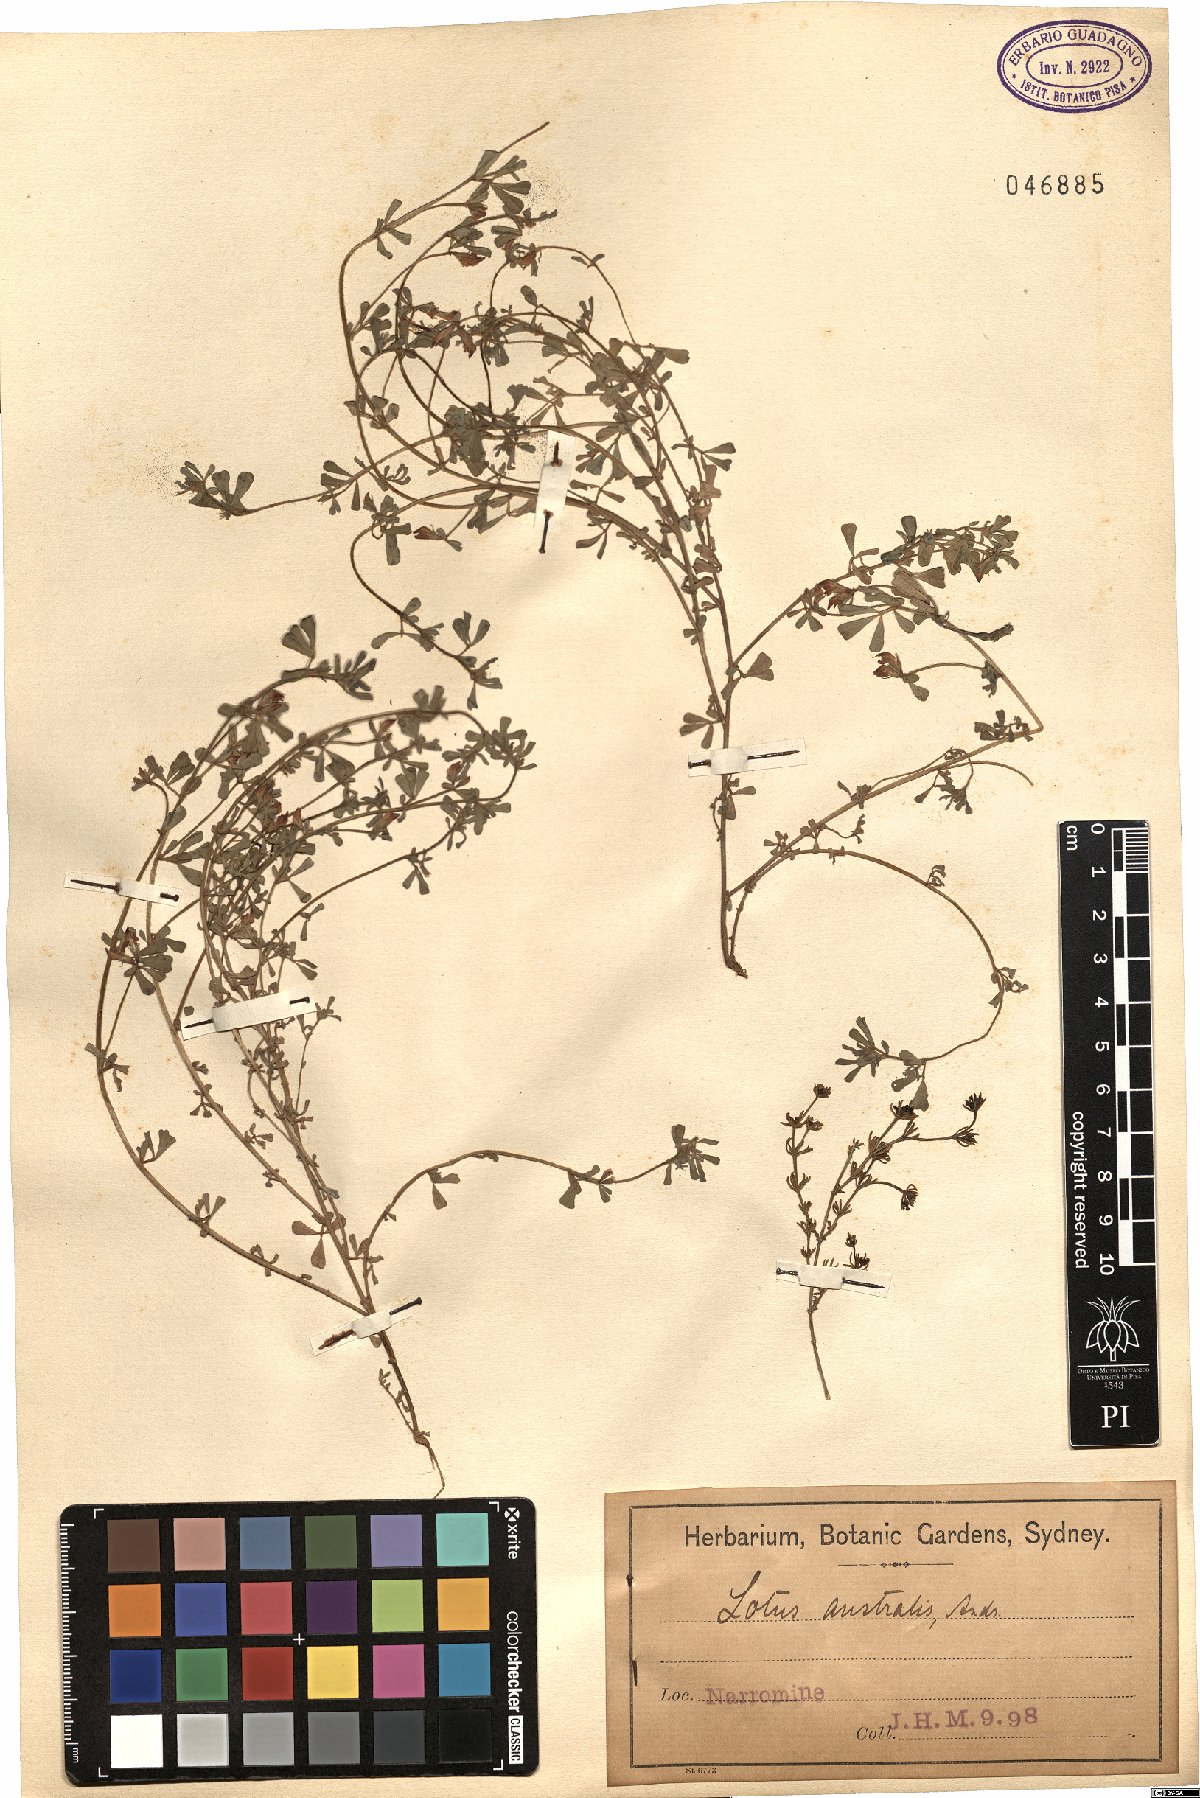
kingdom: Plantae
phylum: Tracheophyta
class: Magnoliopsida
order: Fabales
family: Fabaceae
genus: Lotus
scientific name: Lotus australis
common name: Australian trefoil
